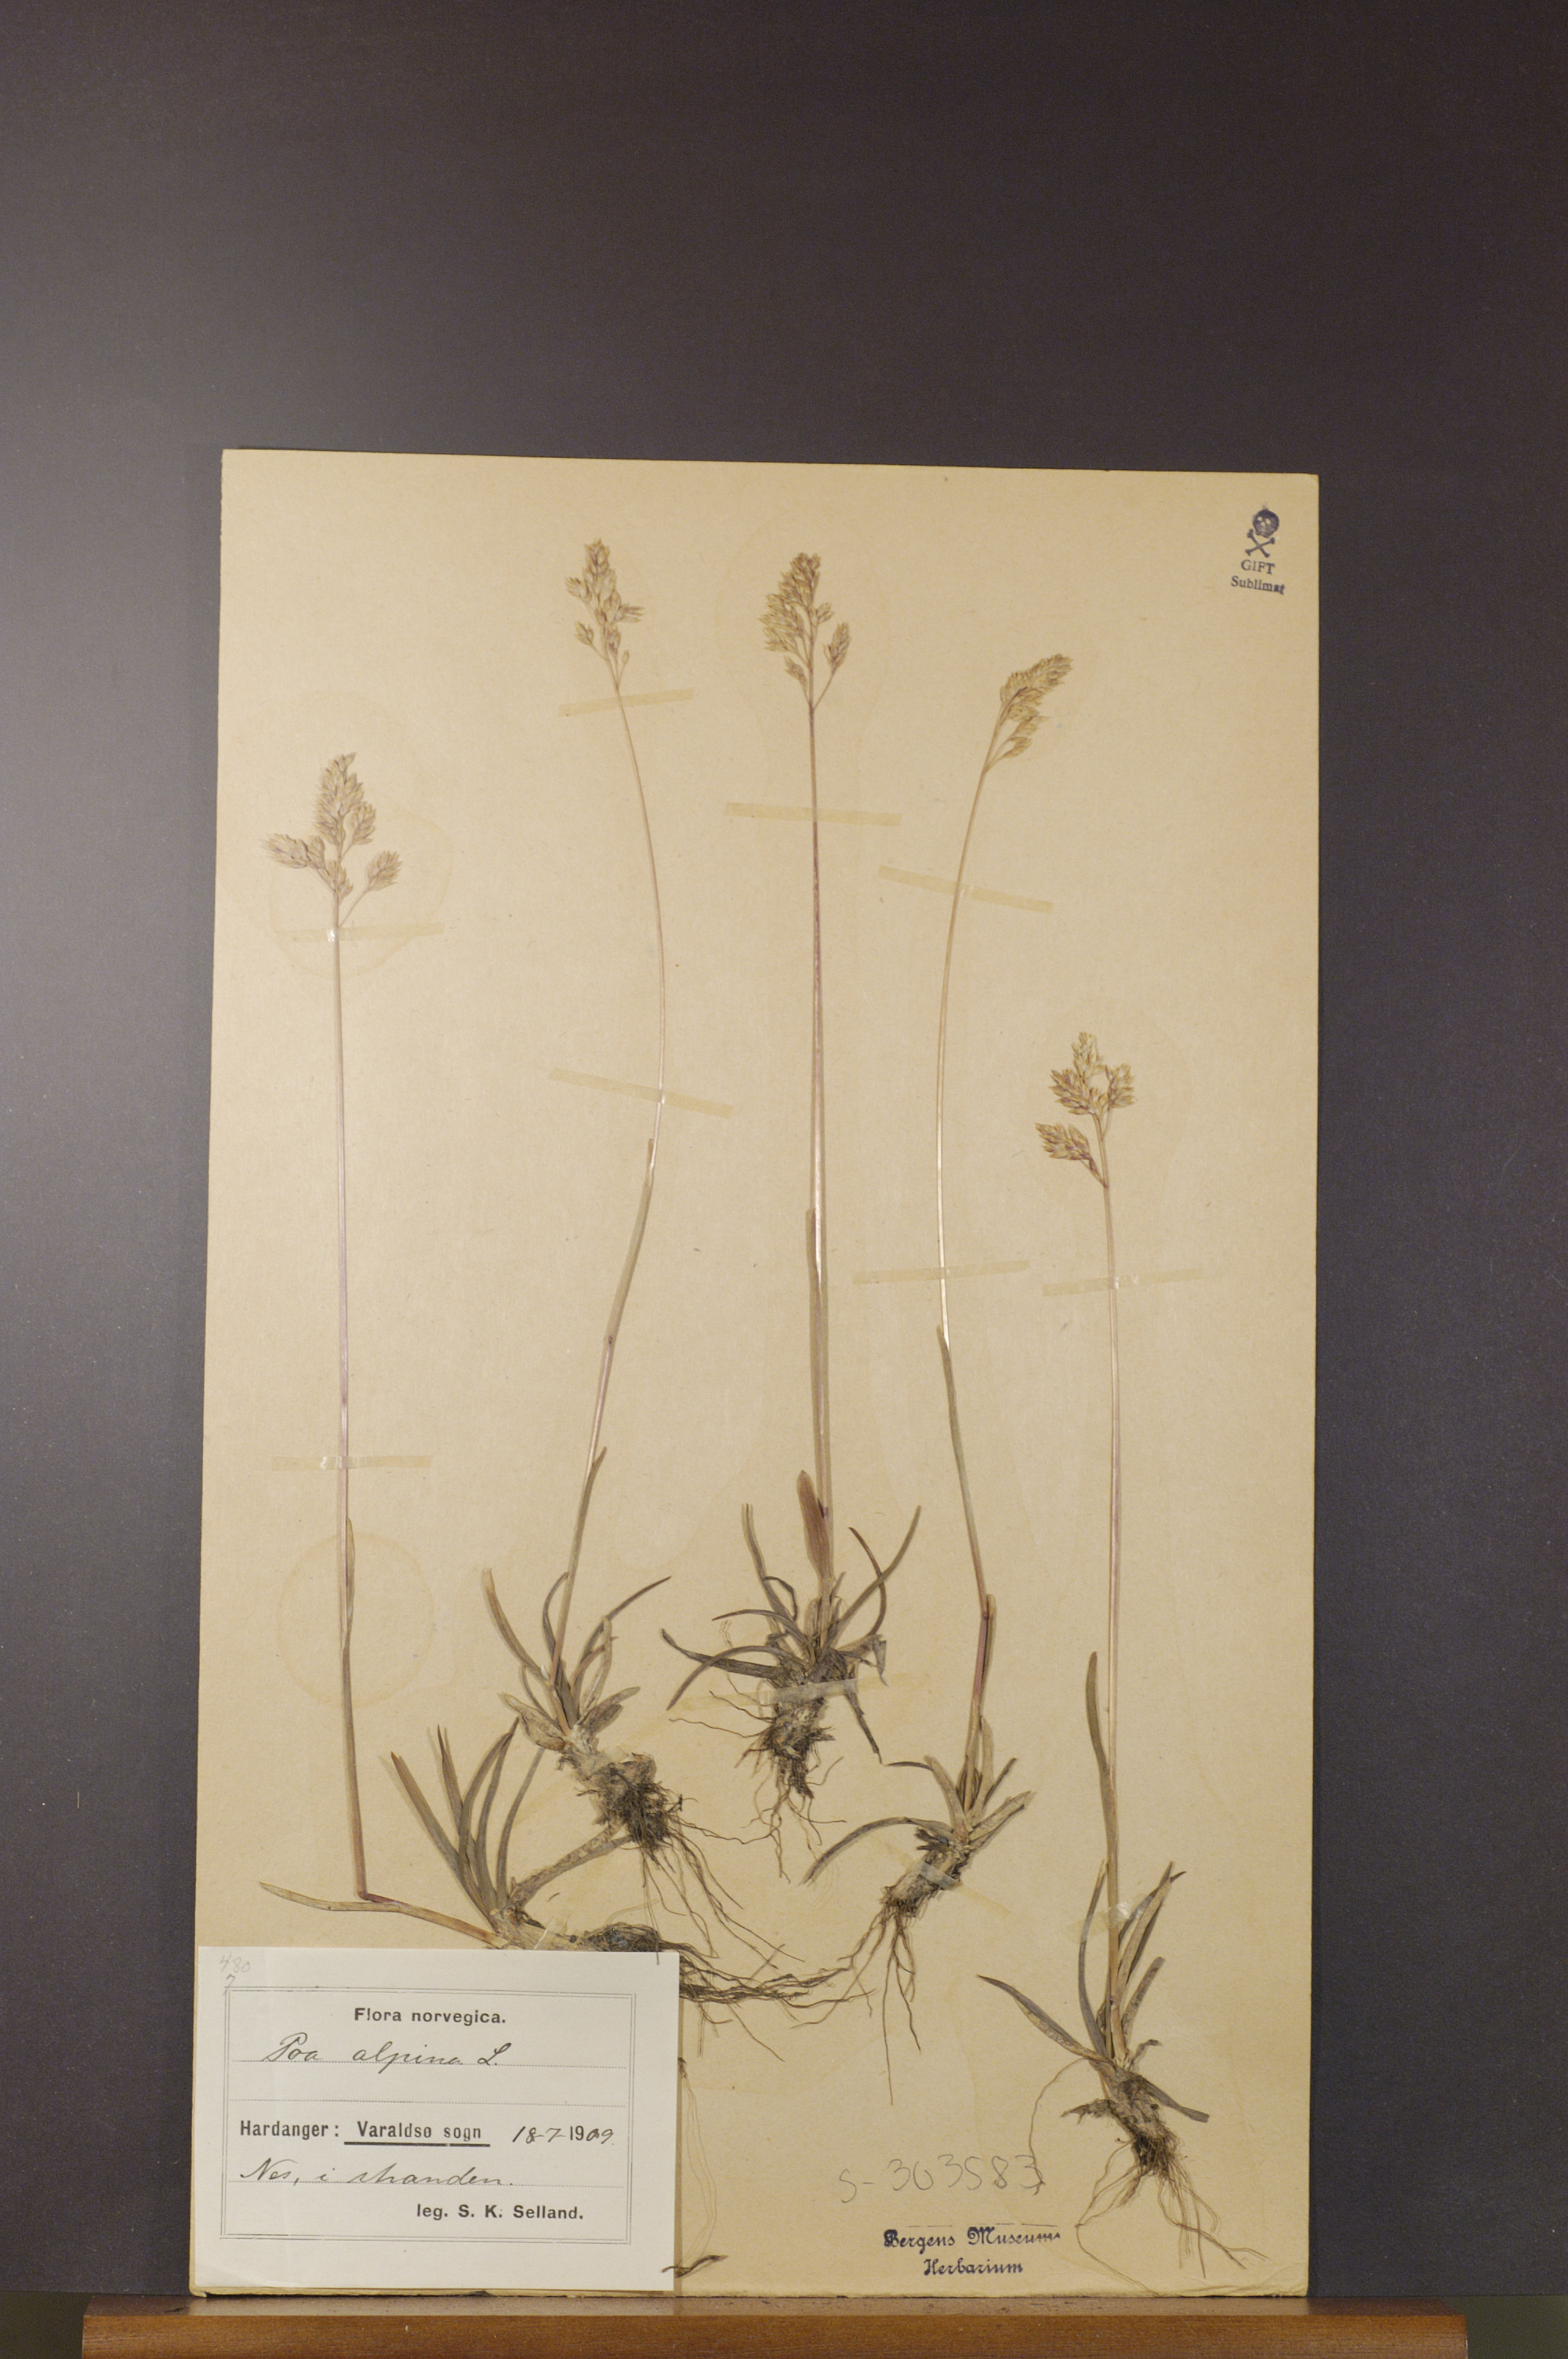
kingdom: Plantae
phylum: Tracheophyta
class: Liliopsida
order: Poales
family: Poaceae
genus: Poa
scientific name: Poa alpina
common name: Alpine bluegrass
